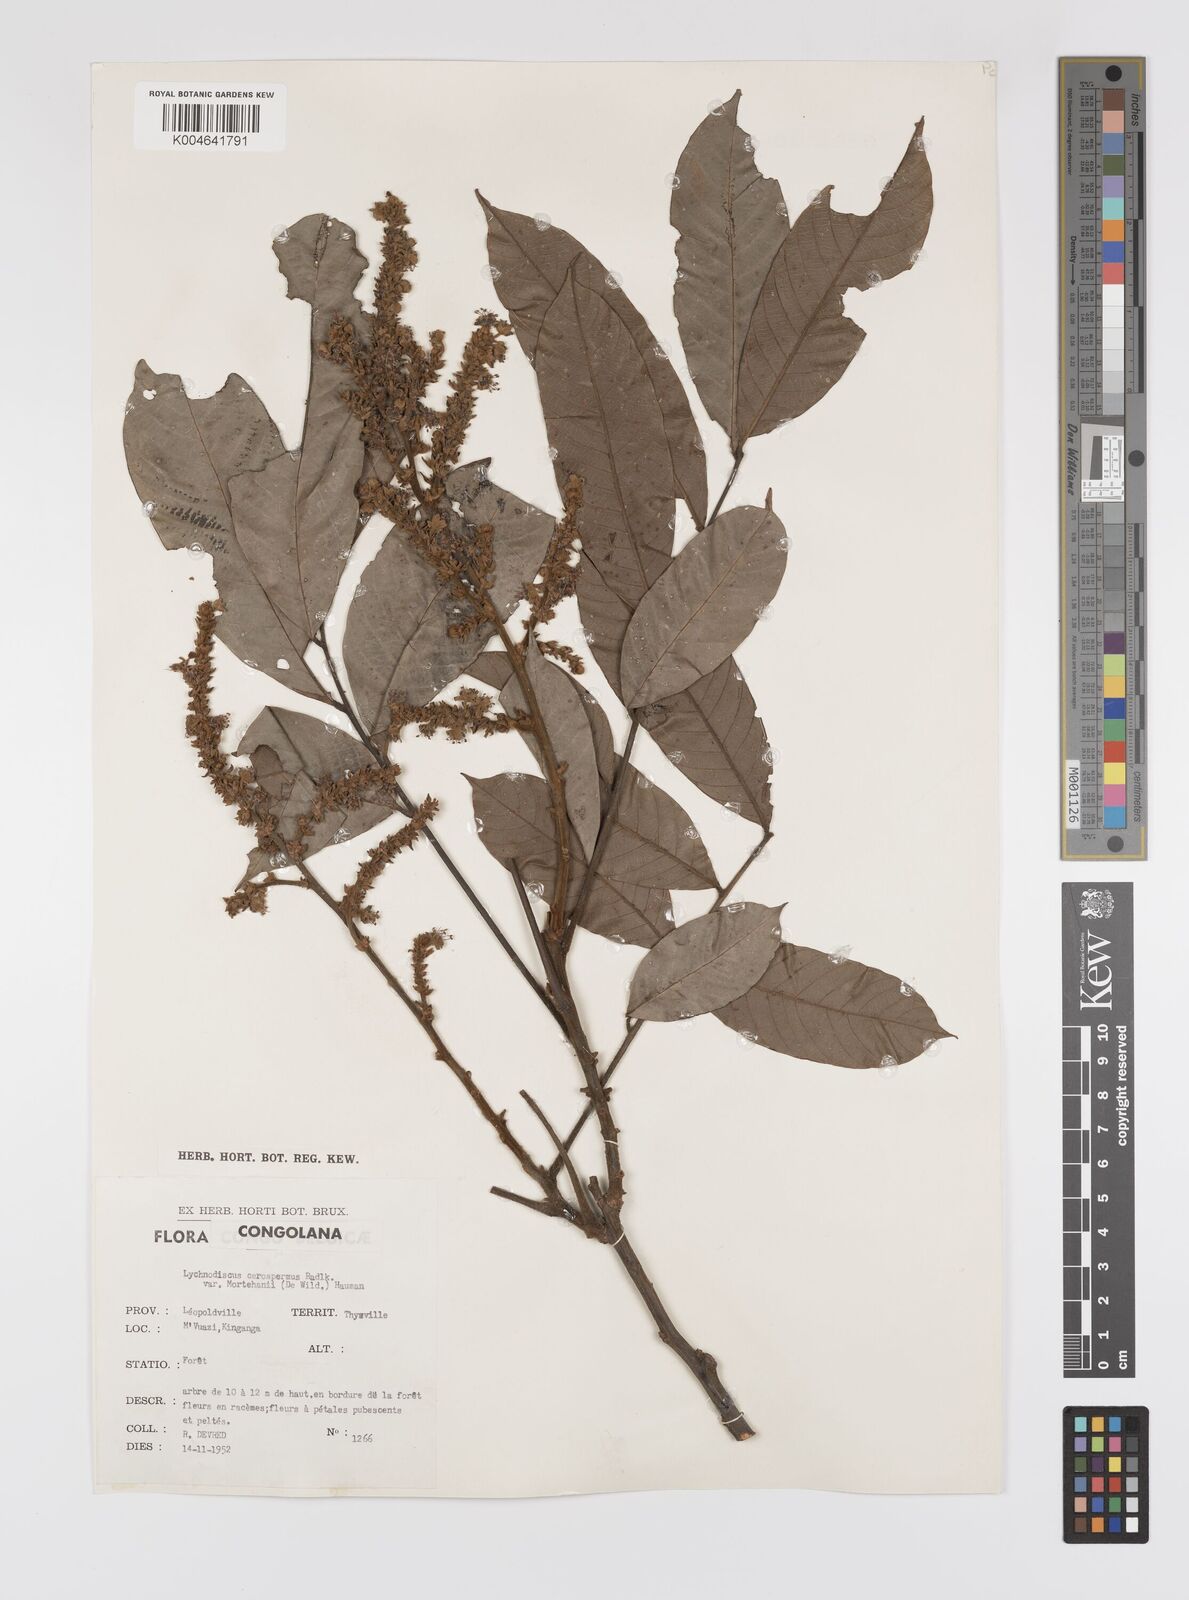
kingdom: Plantae
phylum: Tracheophyta
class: Magnoliopsida
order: Sapindales
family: Sapindaceae
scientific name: Sapindaceae
